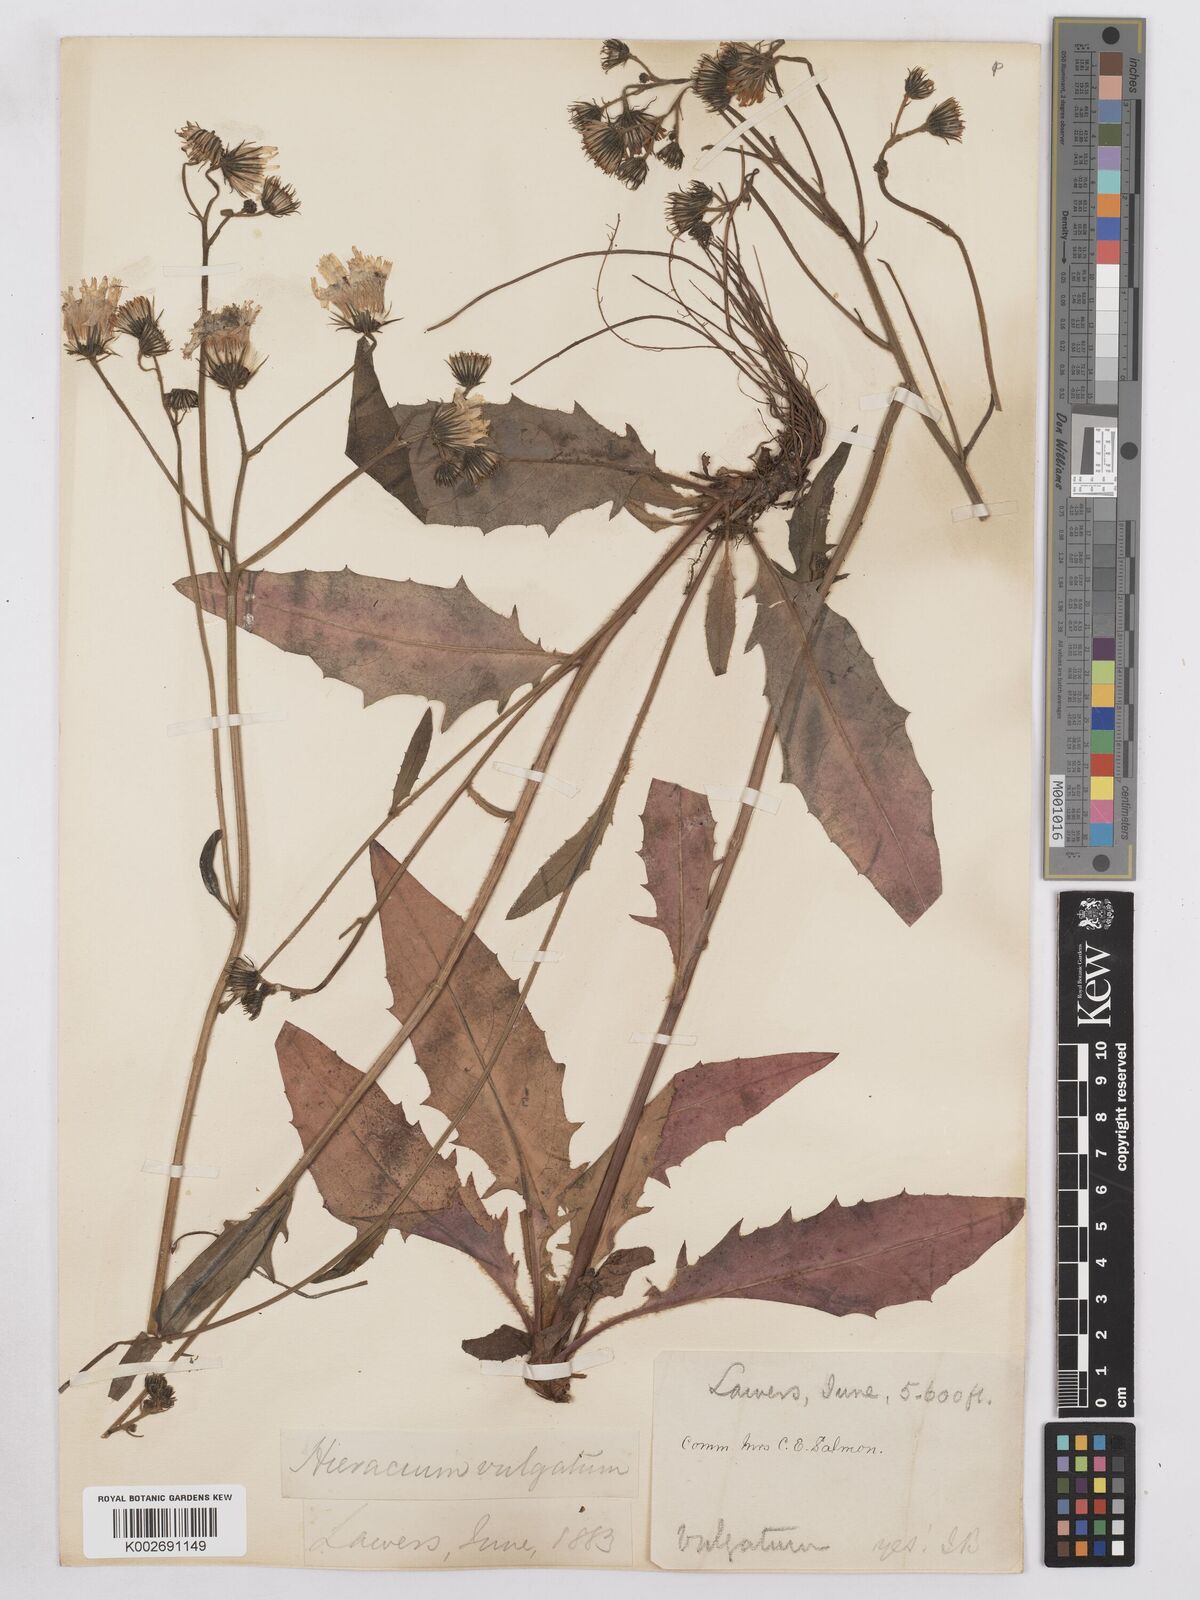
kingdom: Plantae
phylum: Tracheophyta
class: Magnoliopsida
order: Asterales
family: Asteraceae
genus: Hieracium
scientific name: Hieracium lachenalii
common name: Common hawkweed
